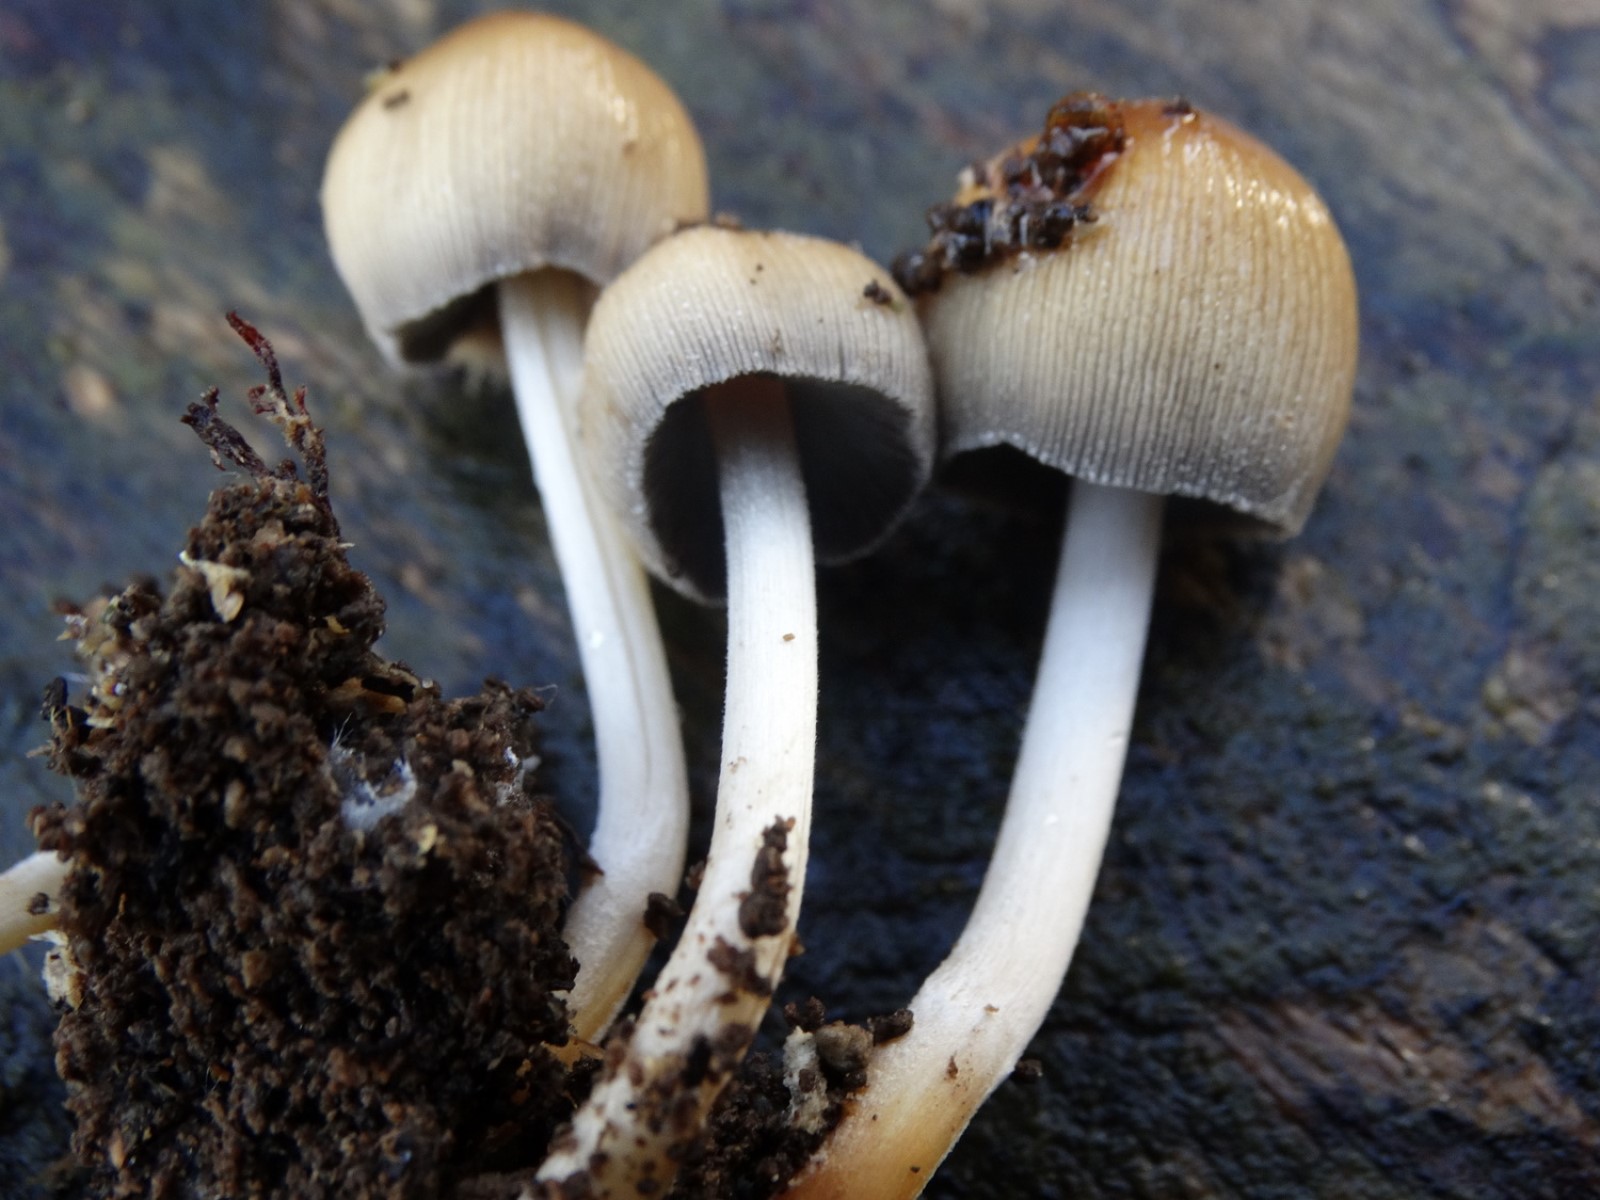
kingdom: Fungi
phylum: Basidiomycota
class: Agaricomycetes
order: Agaricales
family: Psathyrellaceae
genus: Coprinellus
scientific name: Coprinellus micaceus
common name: glimmer-blækhat
